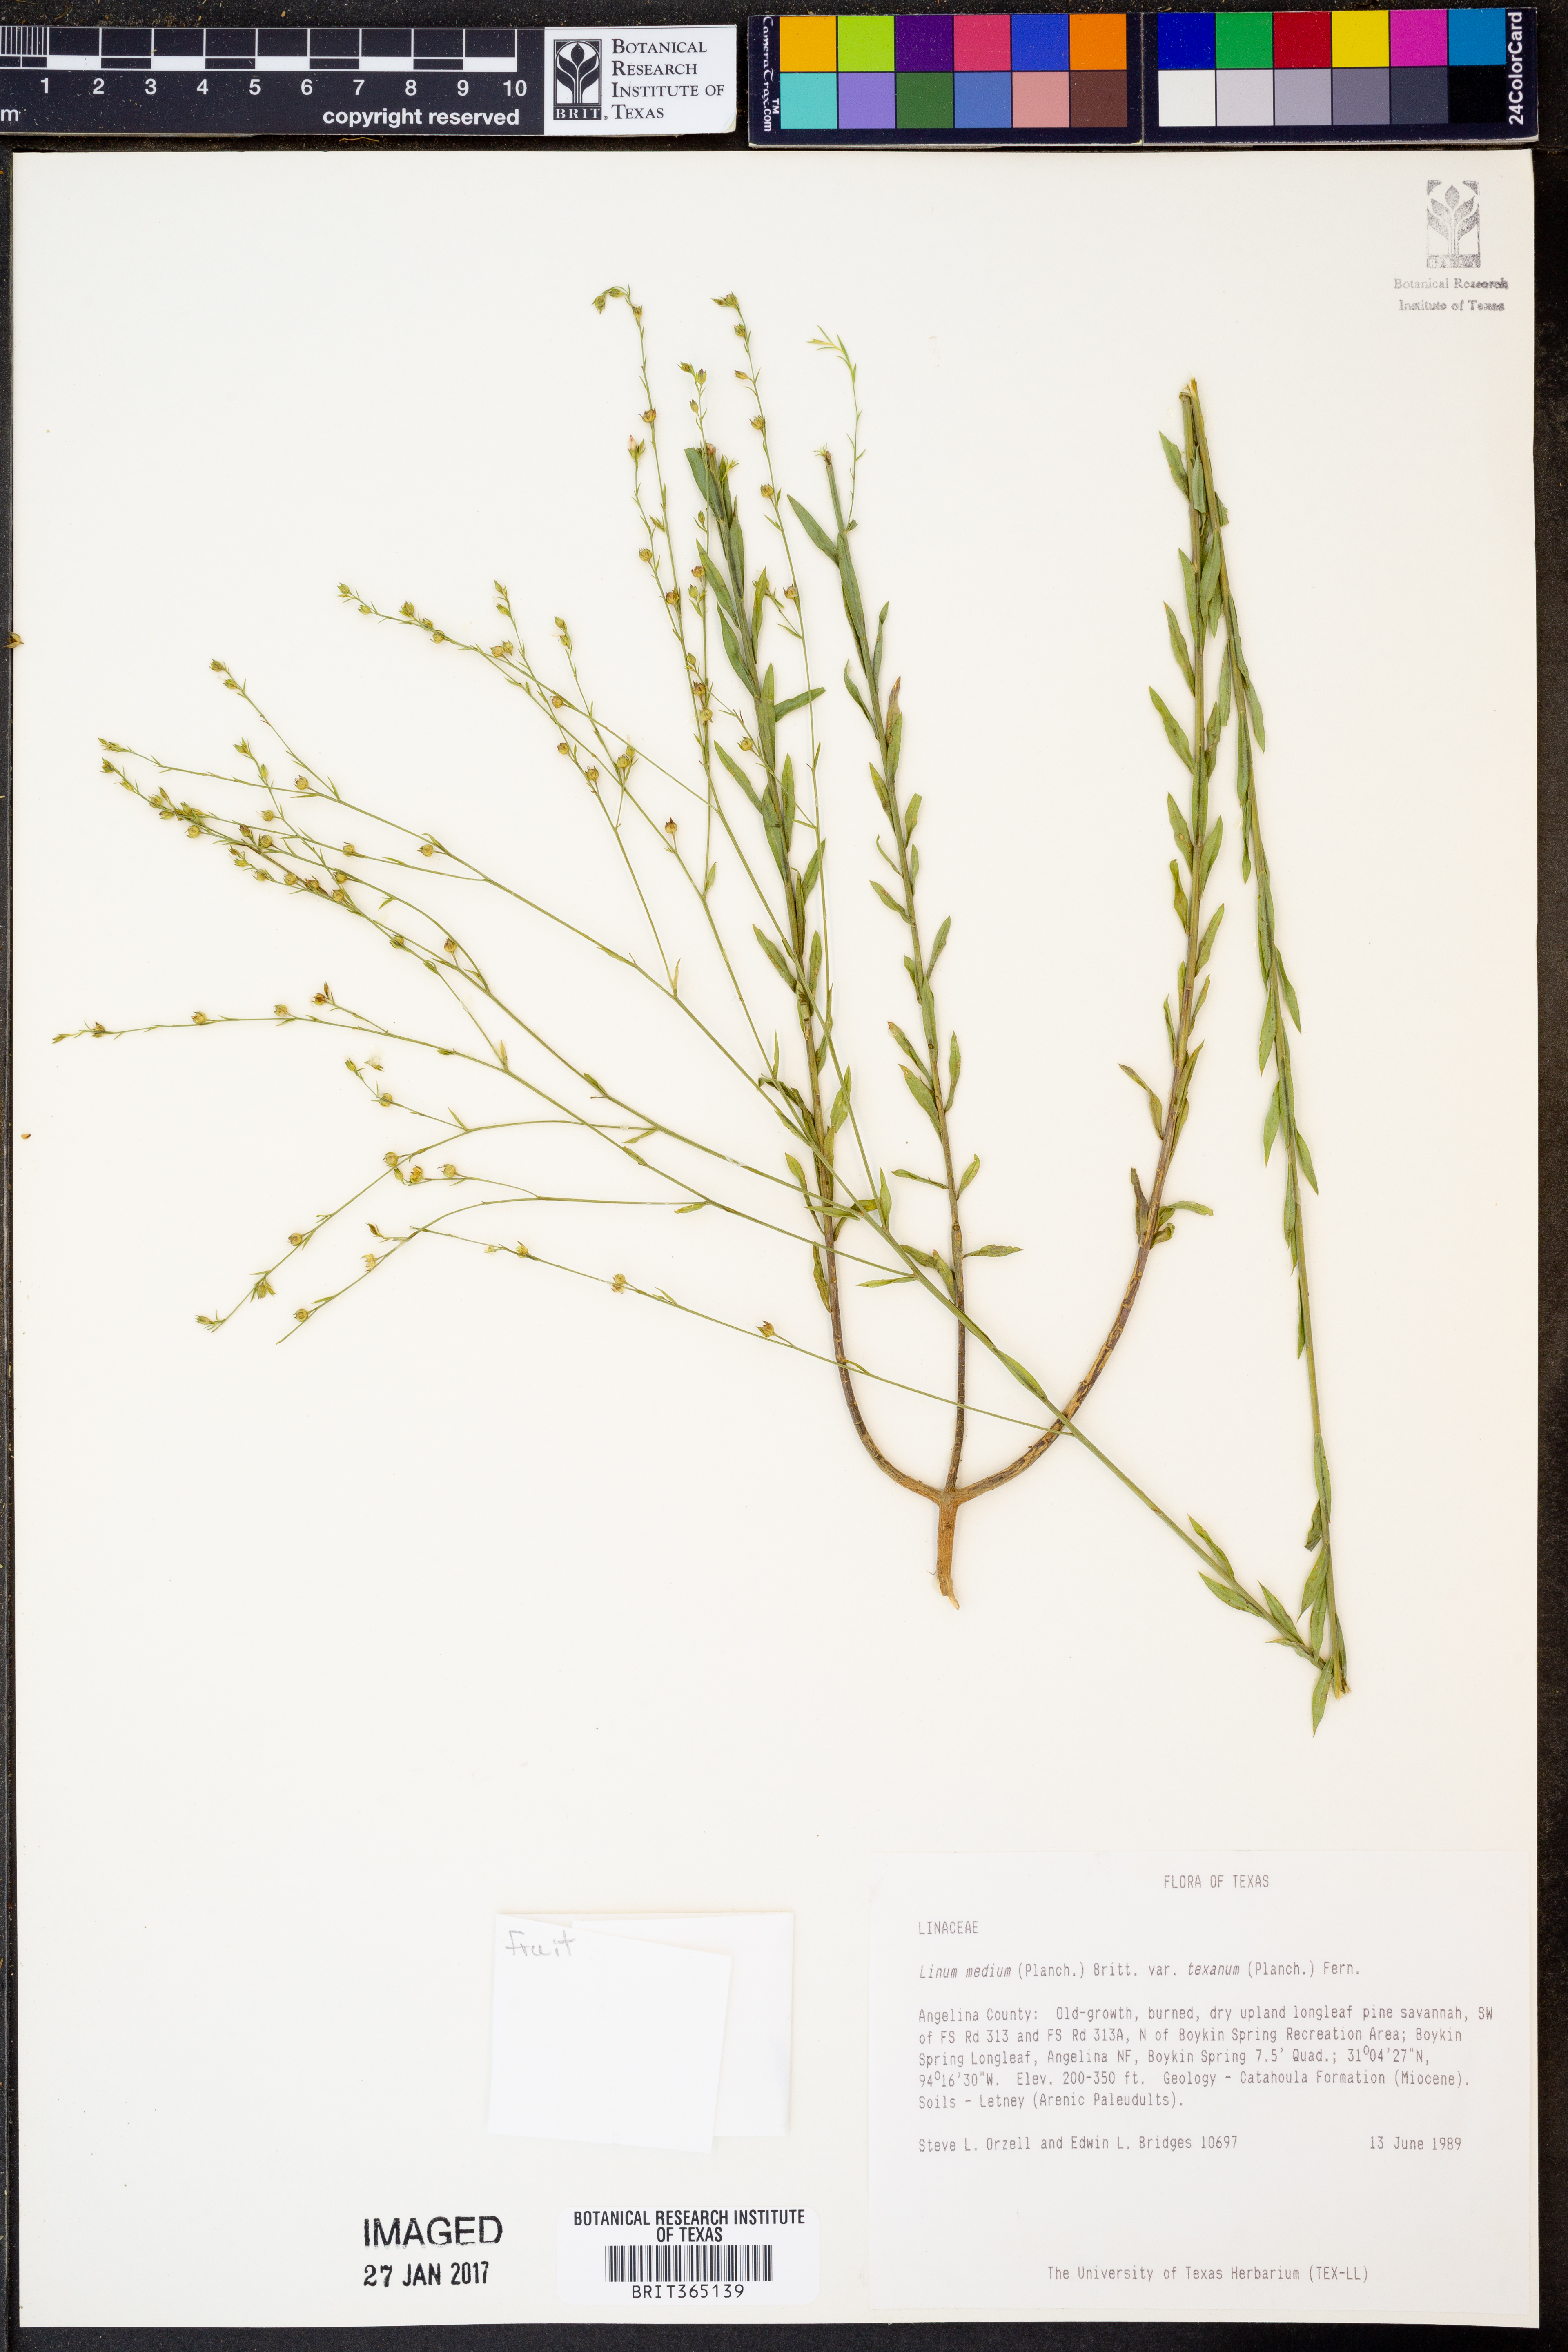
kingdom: Plantae
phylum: Tracheophyta
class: Magnoliopsida
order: Malpighiales
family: Linaceae
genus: Linum
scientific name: Linum medium
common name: Stiff yellow flax
